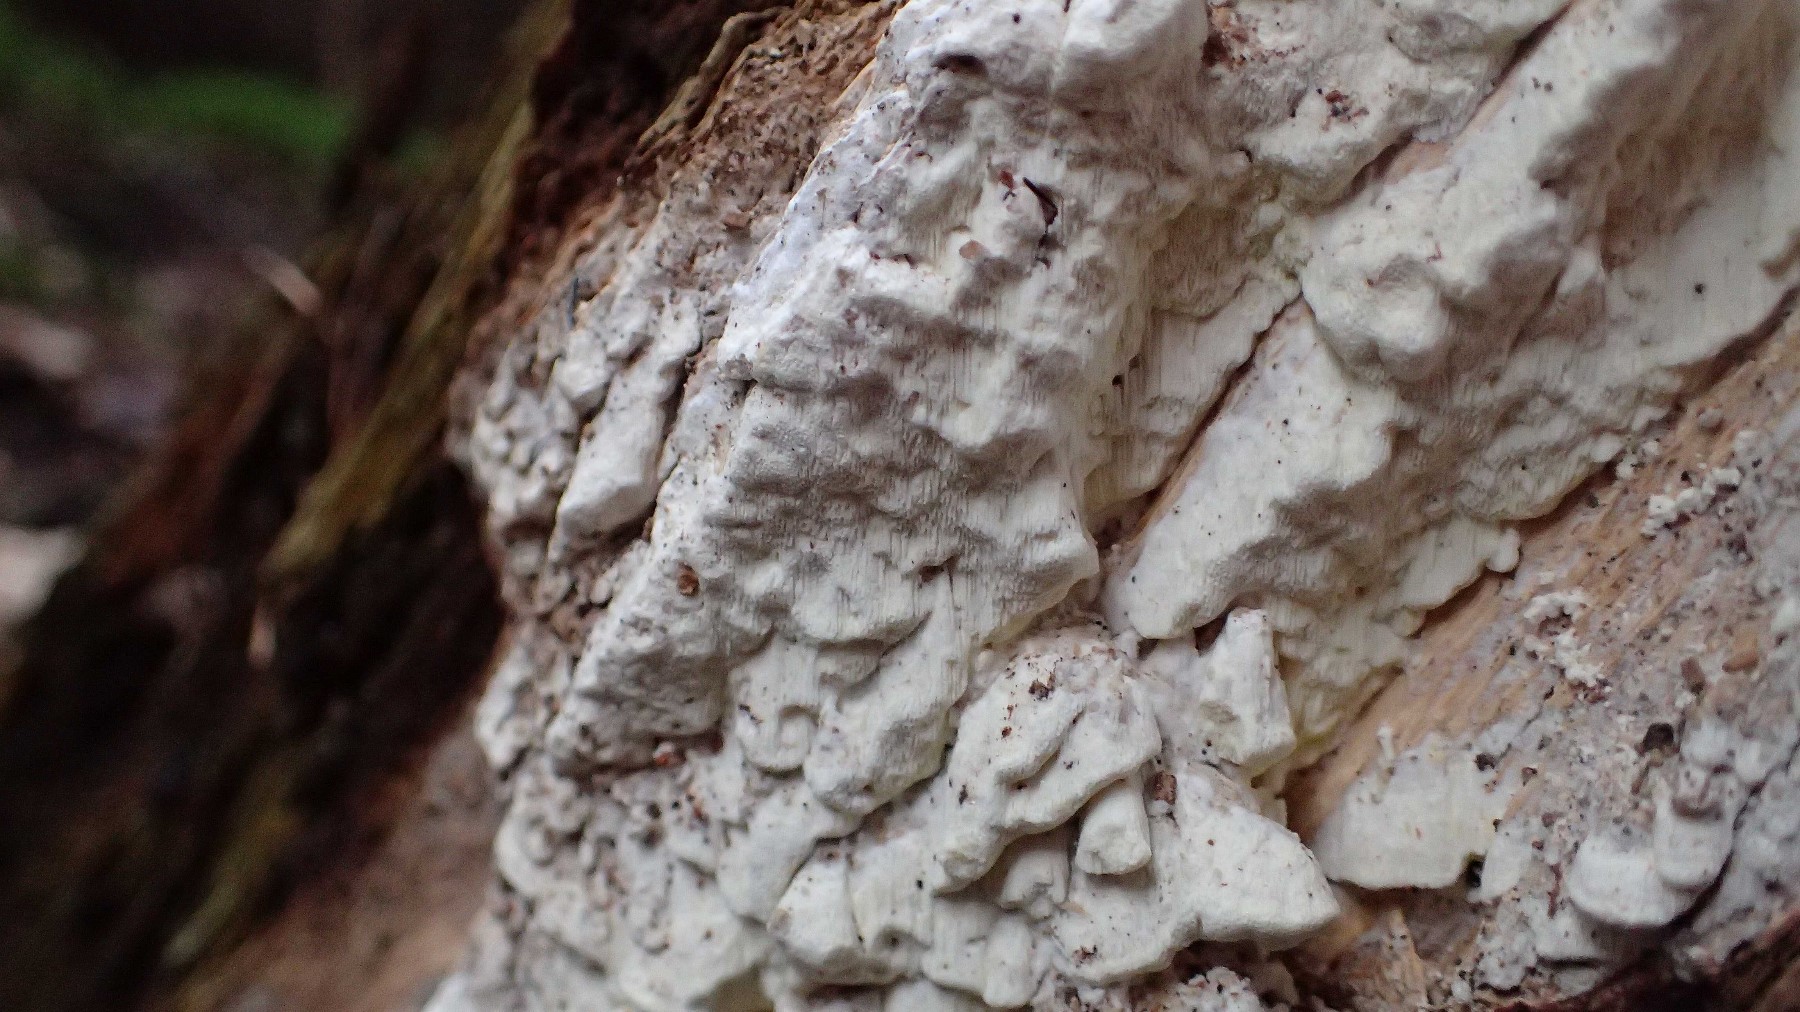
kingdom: Fungi
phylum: Basidiomycota
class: Agaricomycetes
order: Polyporales
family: Fomitopsidaceae
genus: Daedalea
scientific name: Daedalea xantha
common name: gul sejporesvamp
